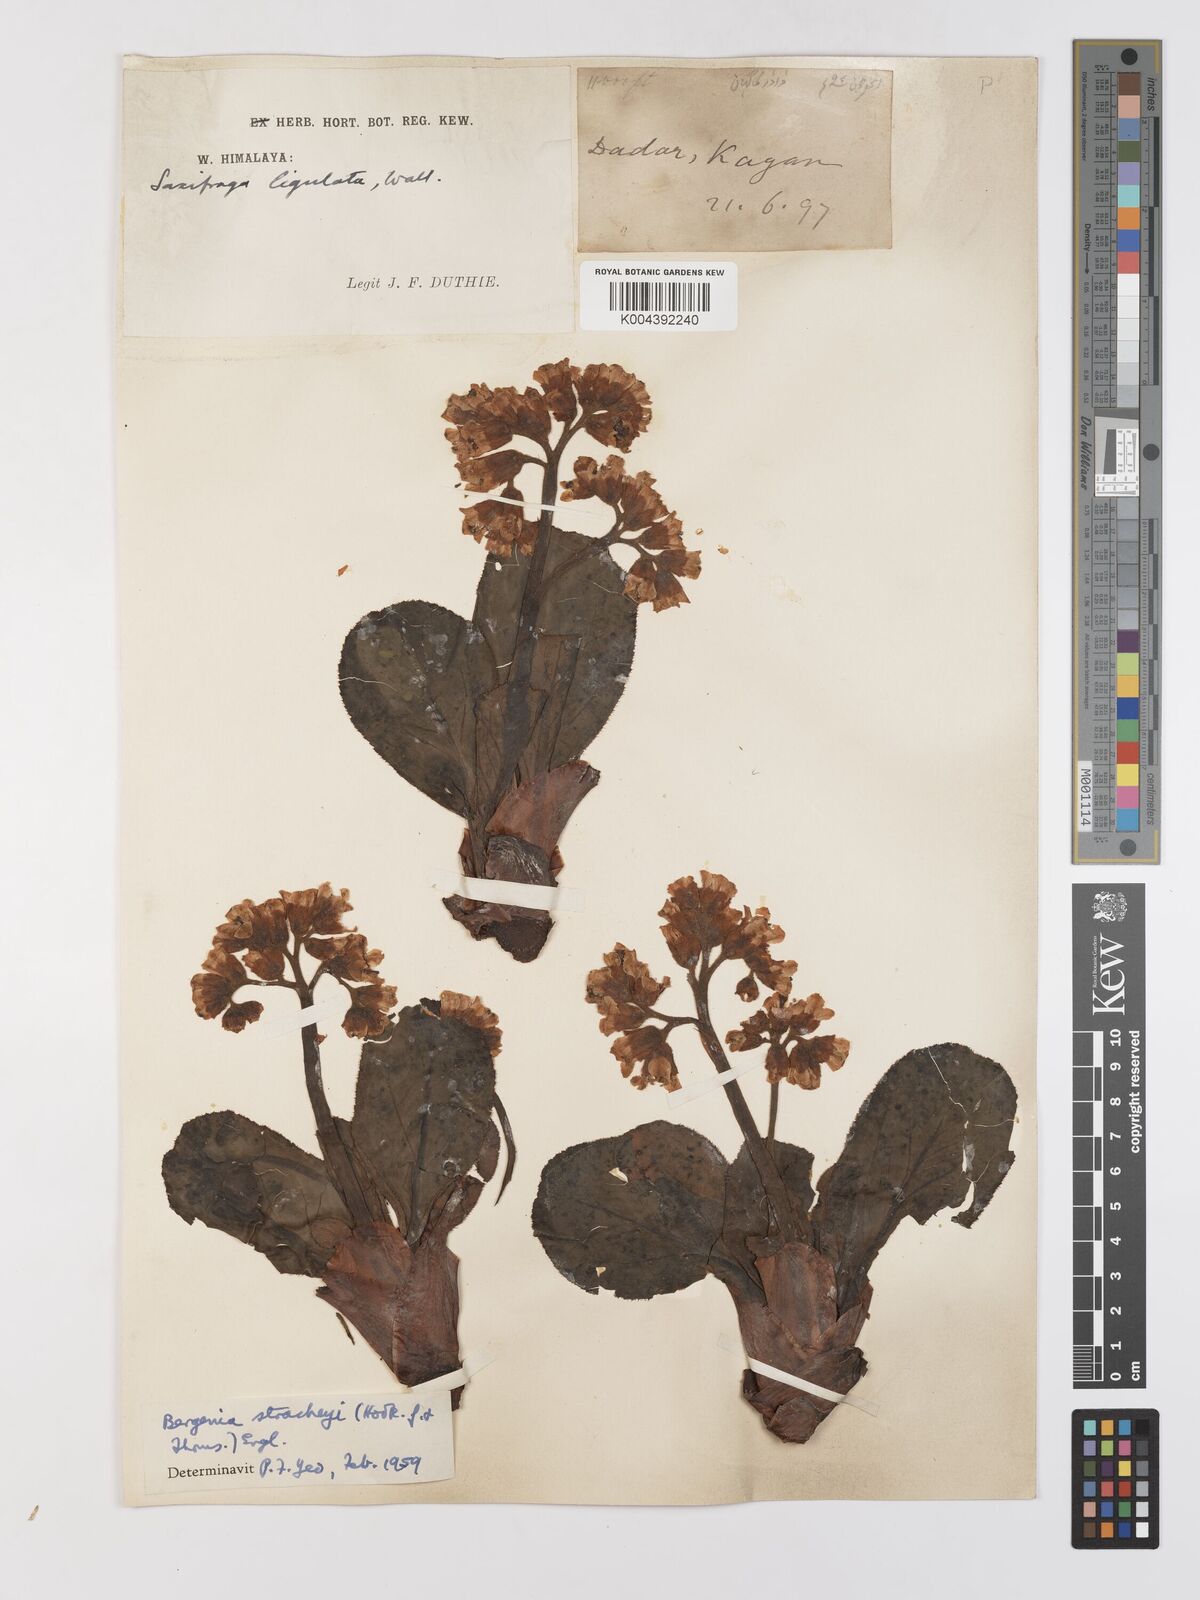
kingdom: Plantae
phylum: Tracheophyta
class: Magnoliopsida
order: Saxifragales
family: Saxifragaceae
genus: Bergenia
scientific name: Bergenia stracheyi
